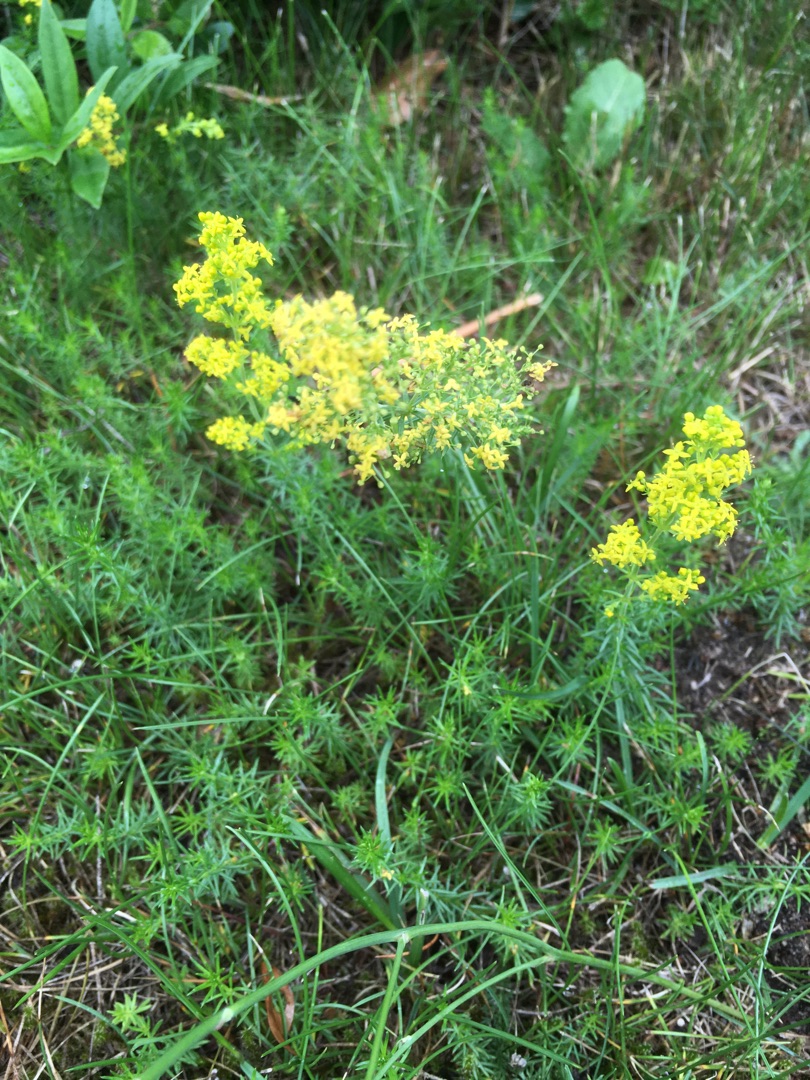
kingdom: Plantae
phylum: Tracheophyta
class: Magnoliopsida
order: Gentianales
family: Rubiaceae
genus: Galium
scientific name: Galium verum
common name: Gul snerre
